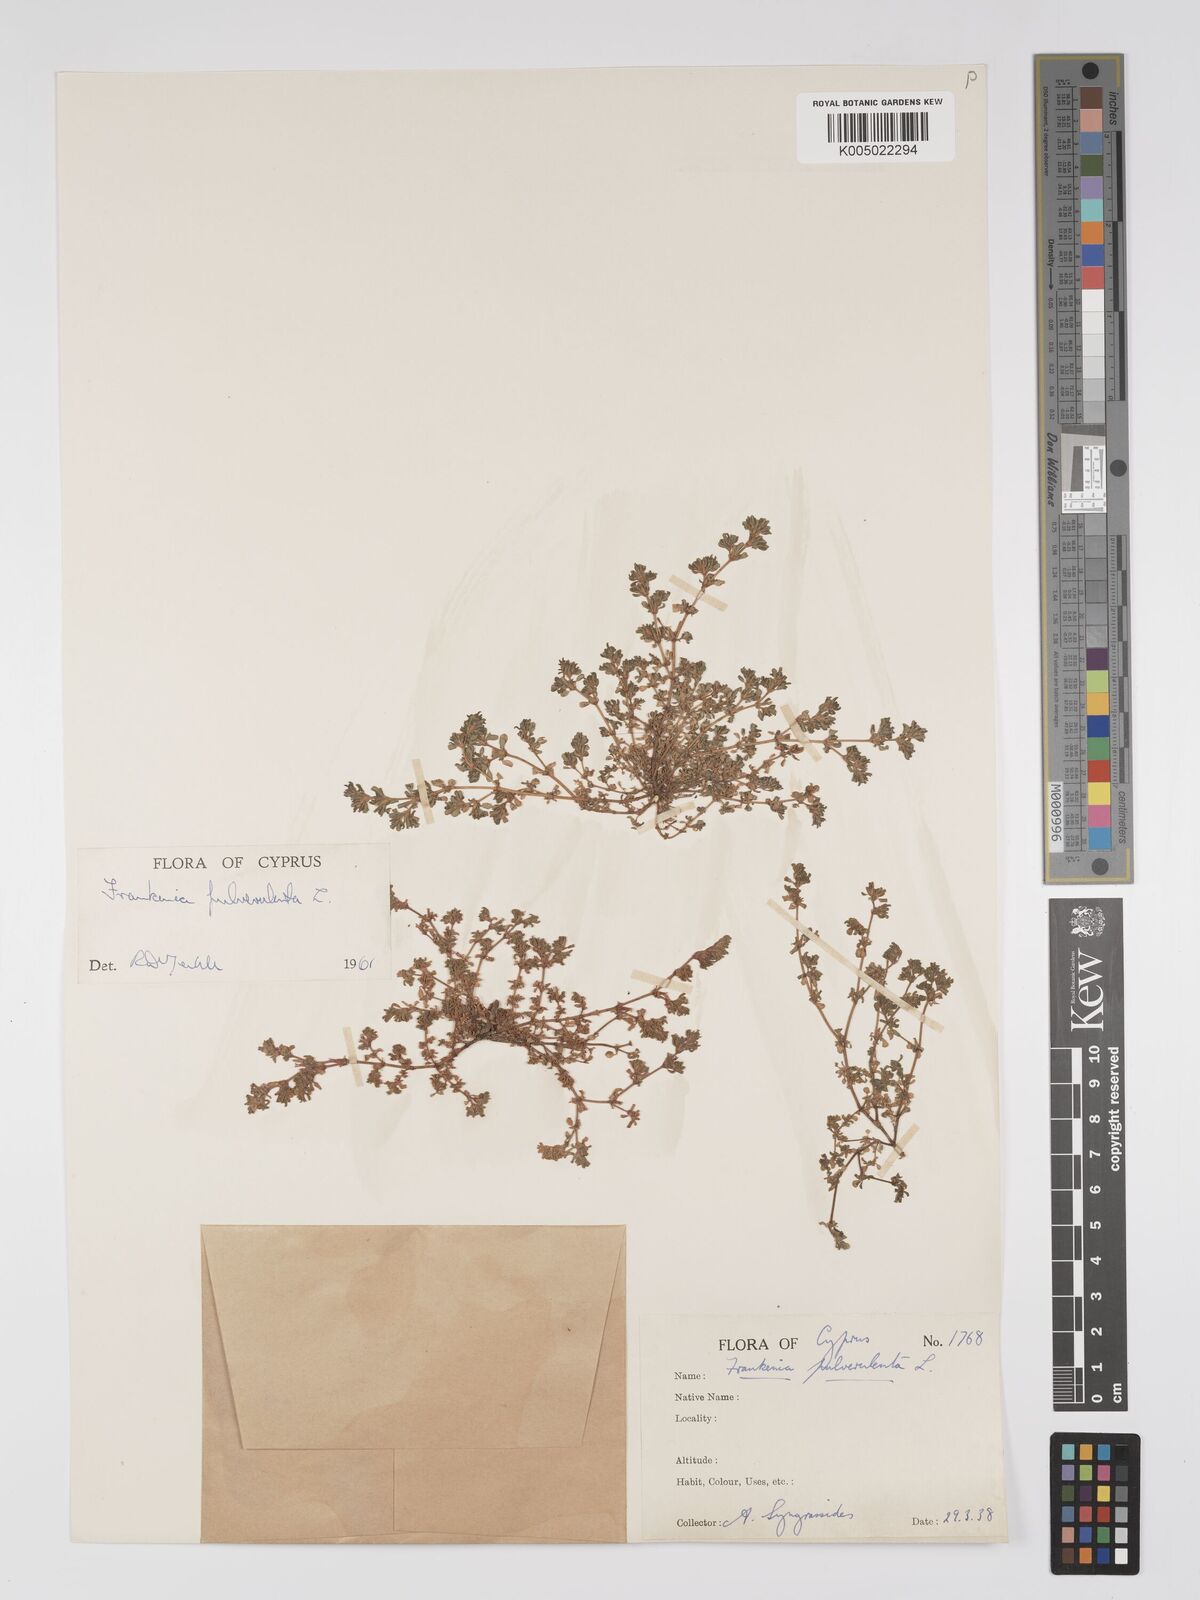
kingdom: Plantae
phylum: Tracheophyta
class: Magnoliopsida
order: Caryophyllales
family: Frankeniaceae
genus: Frankenia
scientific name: Frankenia pulverulenta
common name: European seaheath
